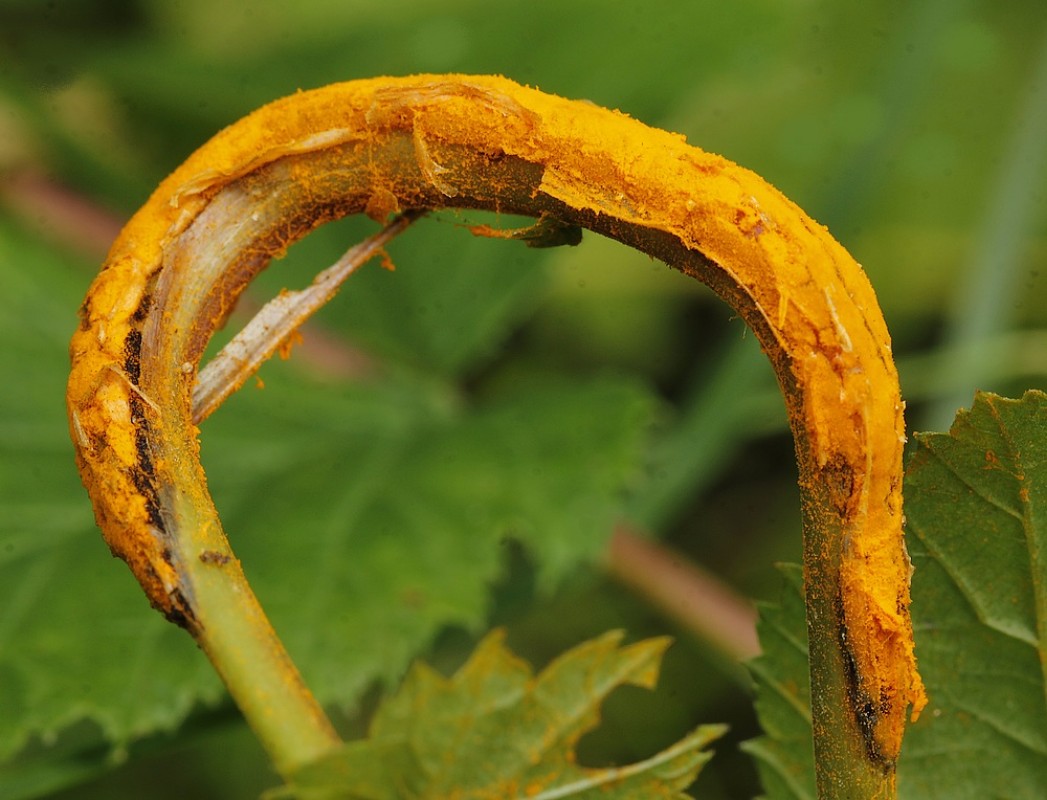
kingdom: Fungi
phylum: Basidiomycota
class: Pucciniomycetes
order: Pucciniales
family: Raveneliaceae
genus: Triphragmium
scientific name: Triphragmium ulmariae
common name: almindelig mjødurtrust
